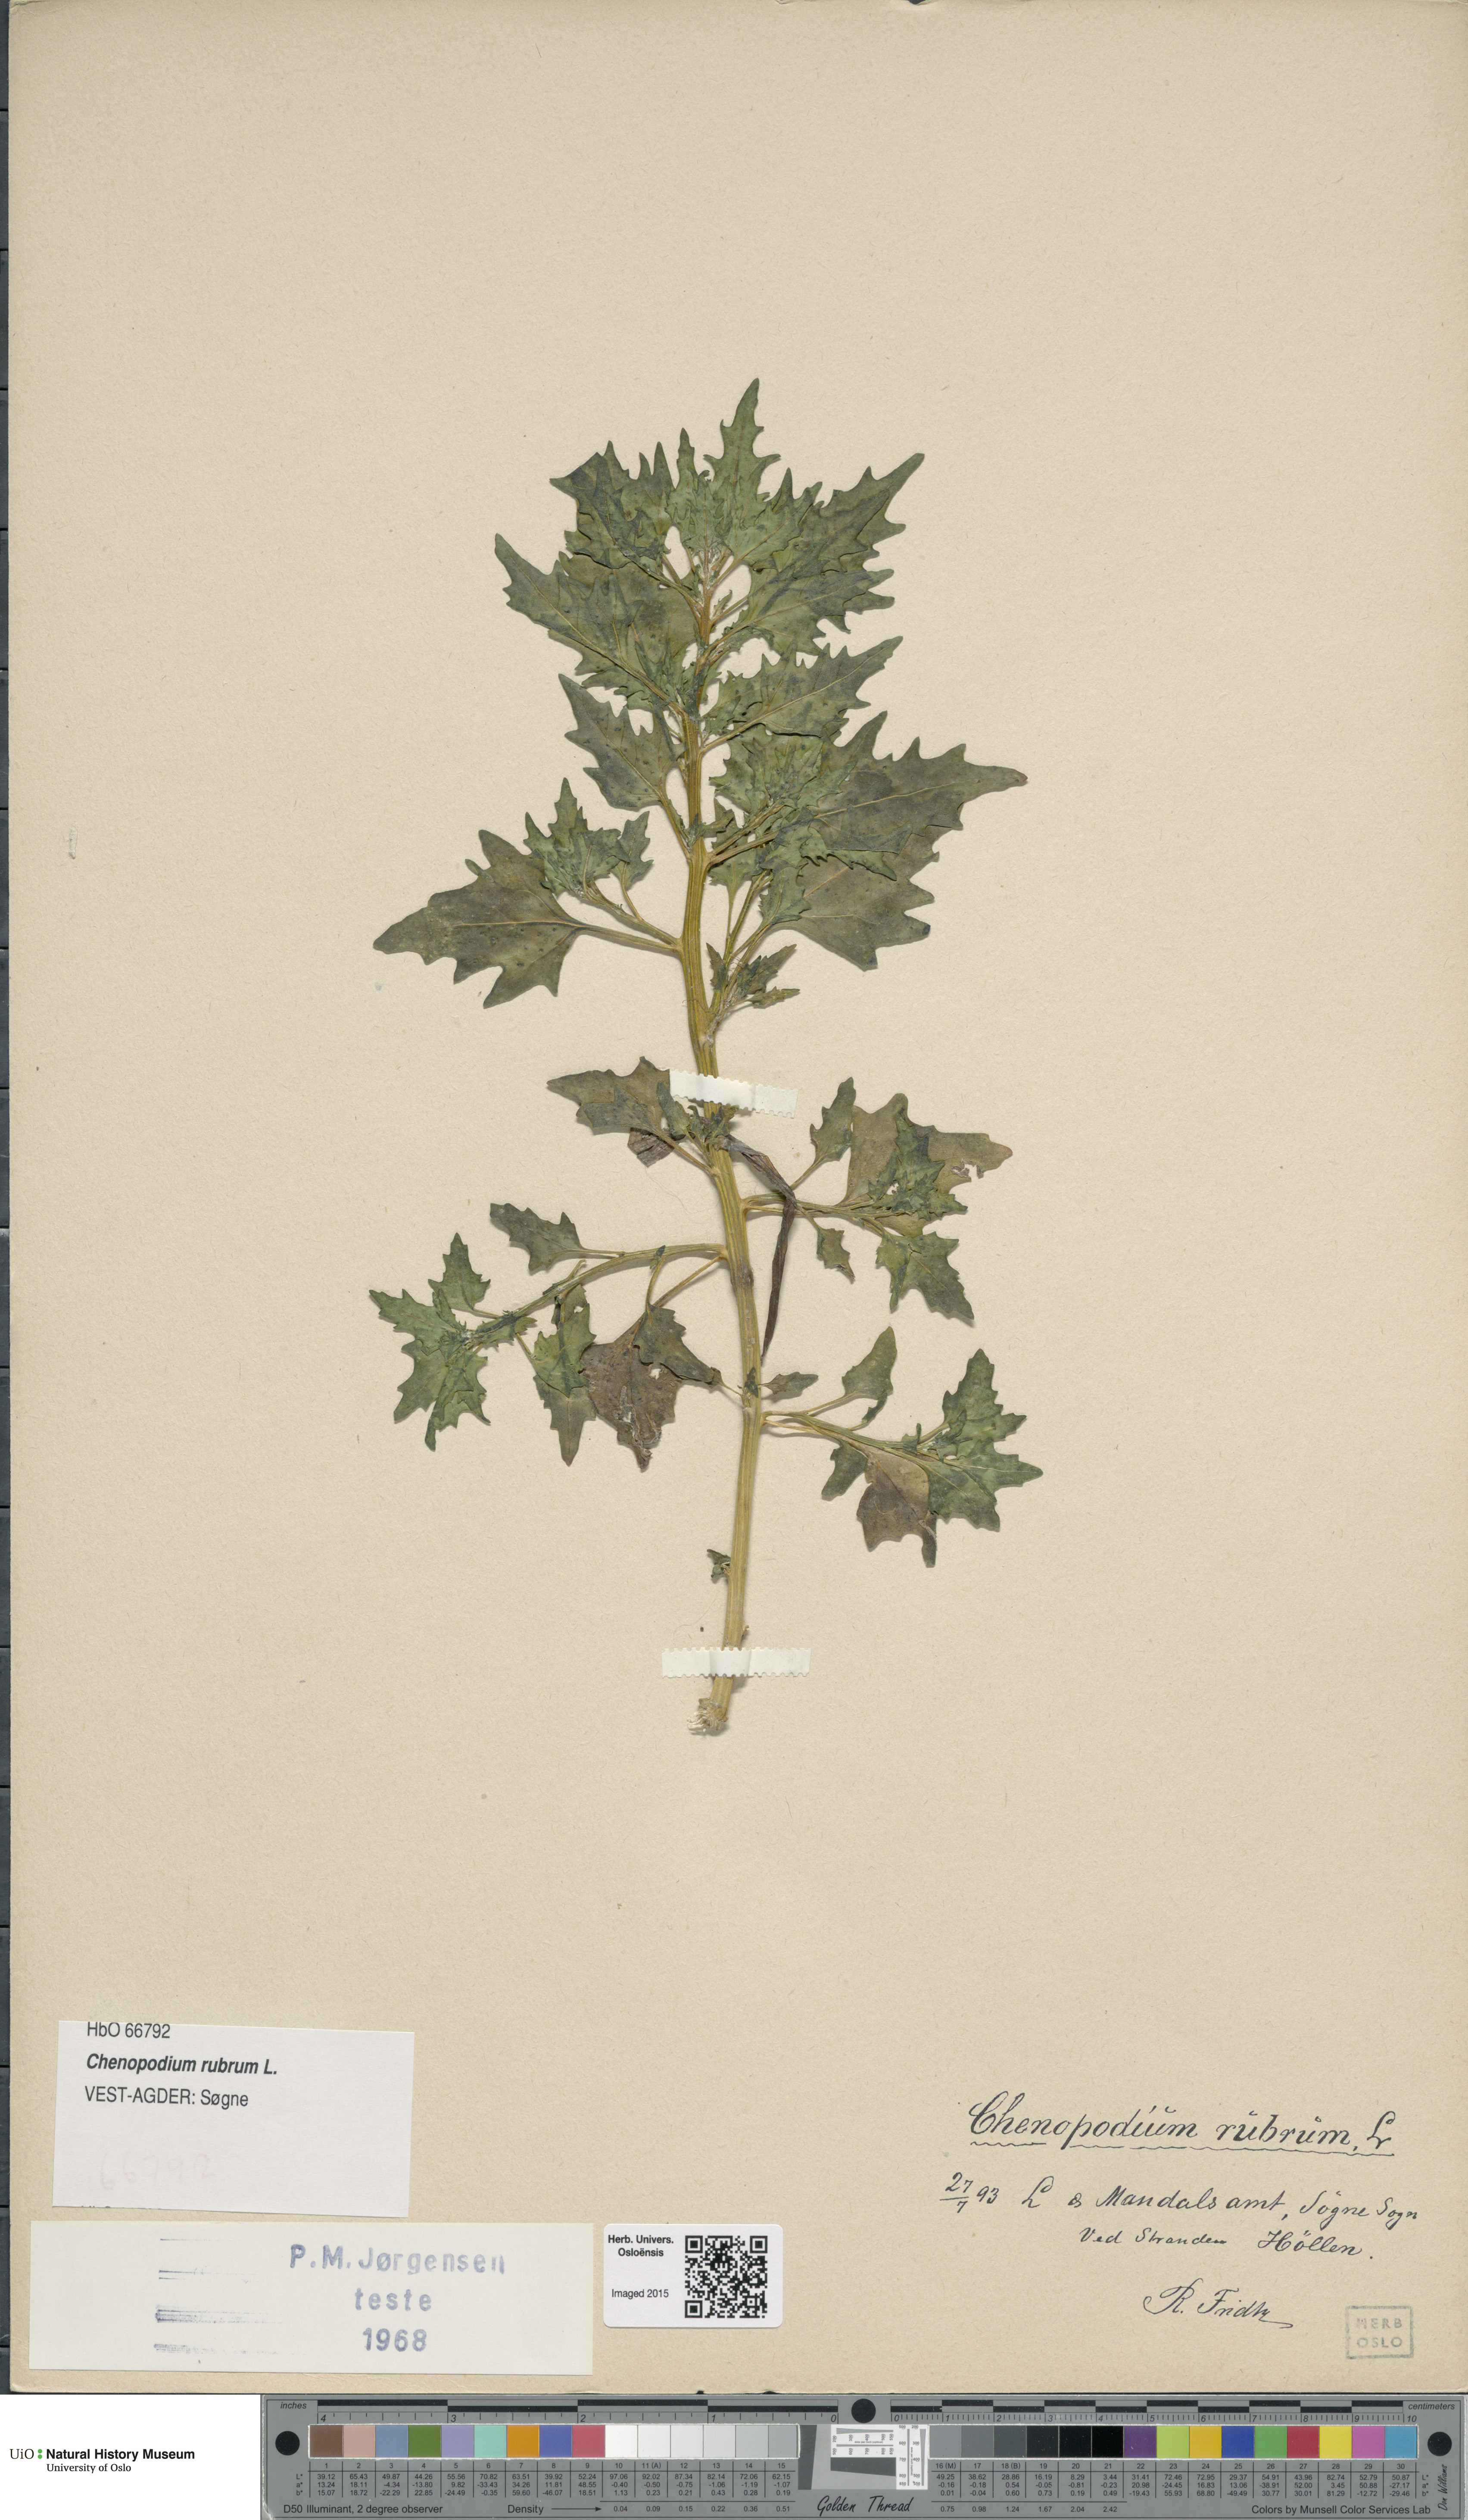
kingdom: Plantae
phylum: Tracheophyta
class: Magnoliopsida
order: Caryophyllales
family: Amaranthaceae
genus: Oxybasis
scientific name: Oxybasis rubra
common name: Red goosefoot
